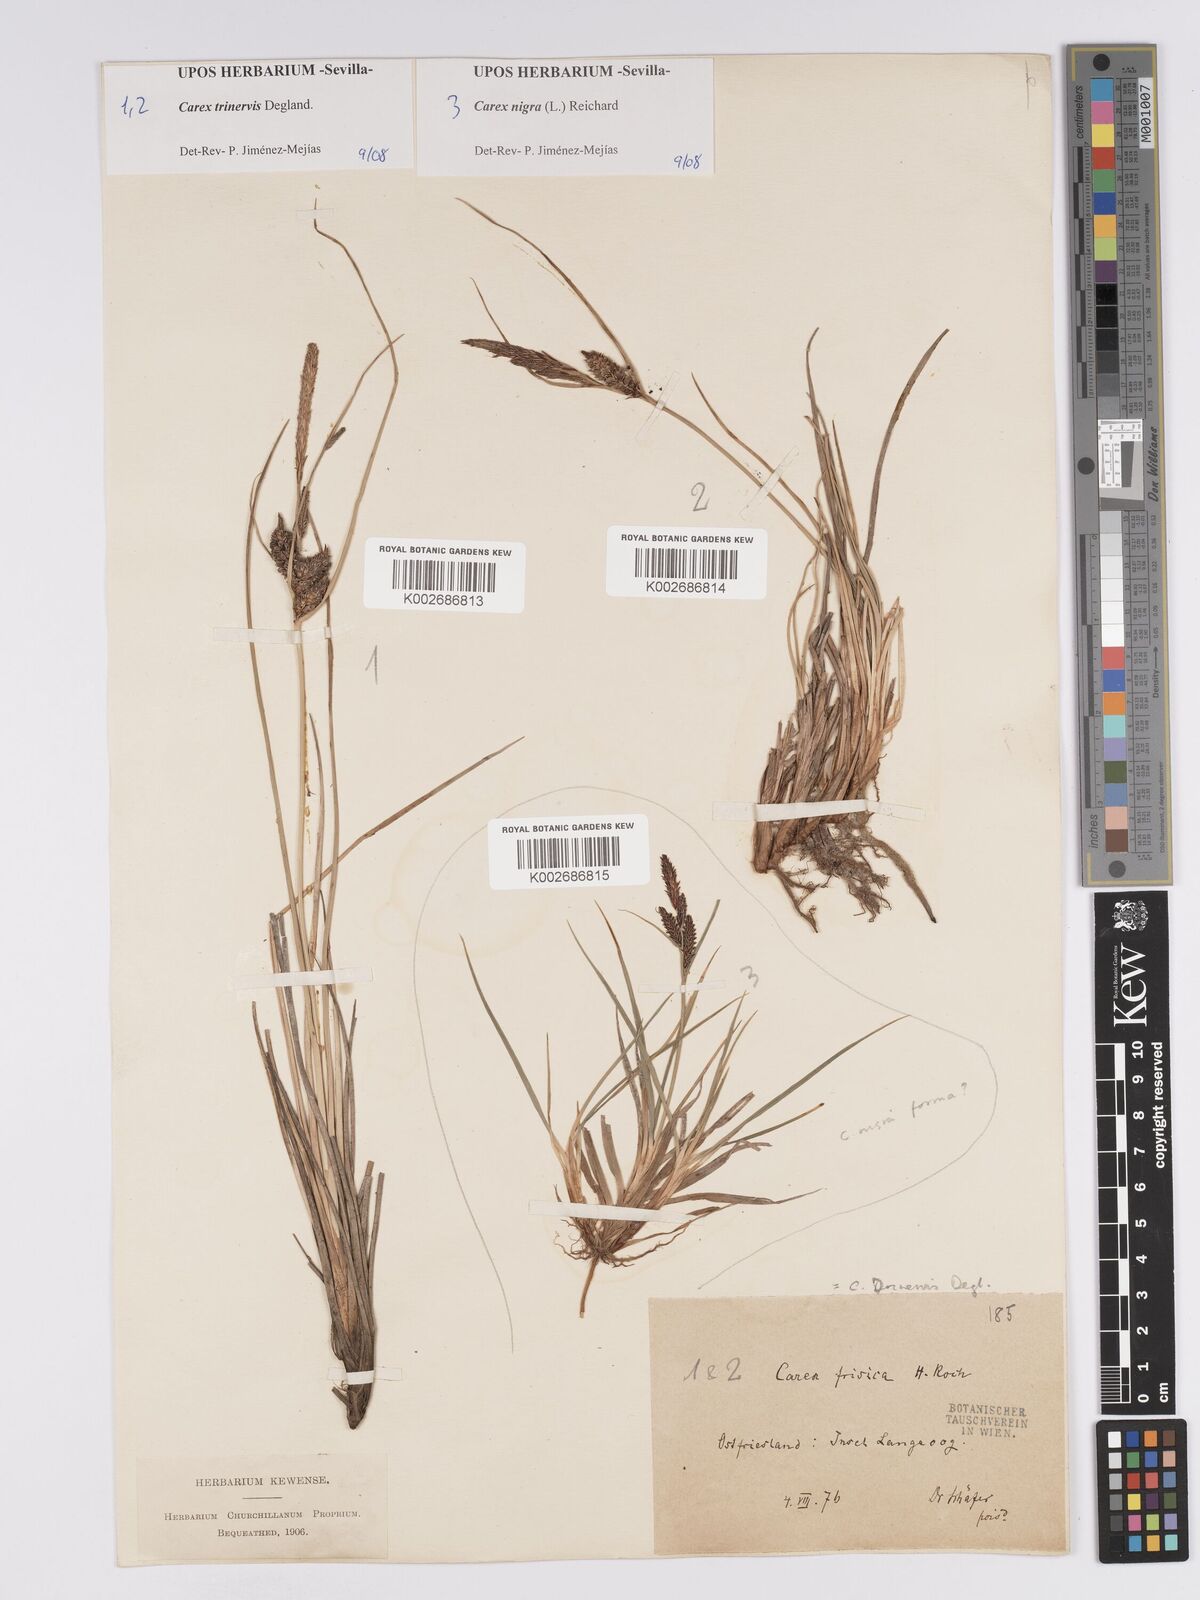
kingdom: Plantae
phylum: Tracheophyta
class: Liliopsida
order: Poales
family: Cyperaceae
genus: Carex
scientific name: Carex trinervis
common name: Three-nerved sedge
